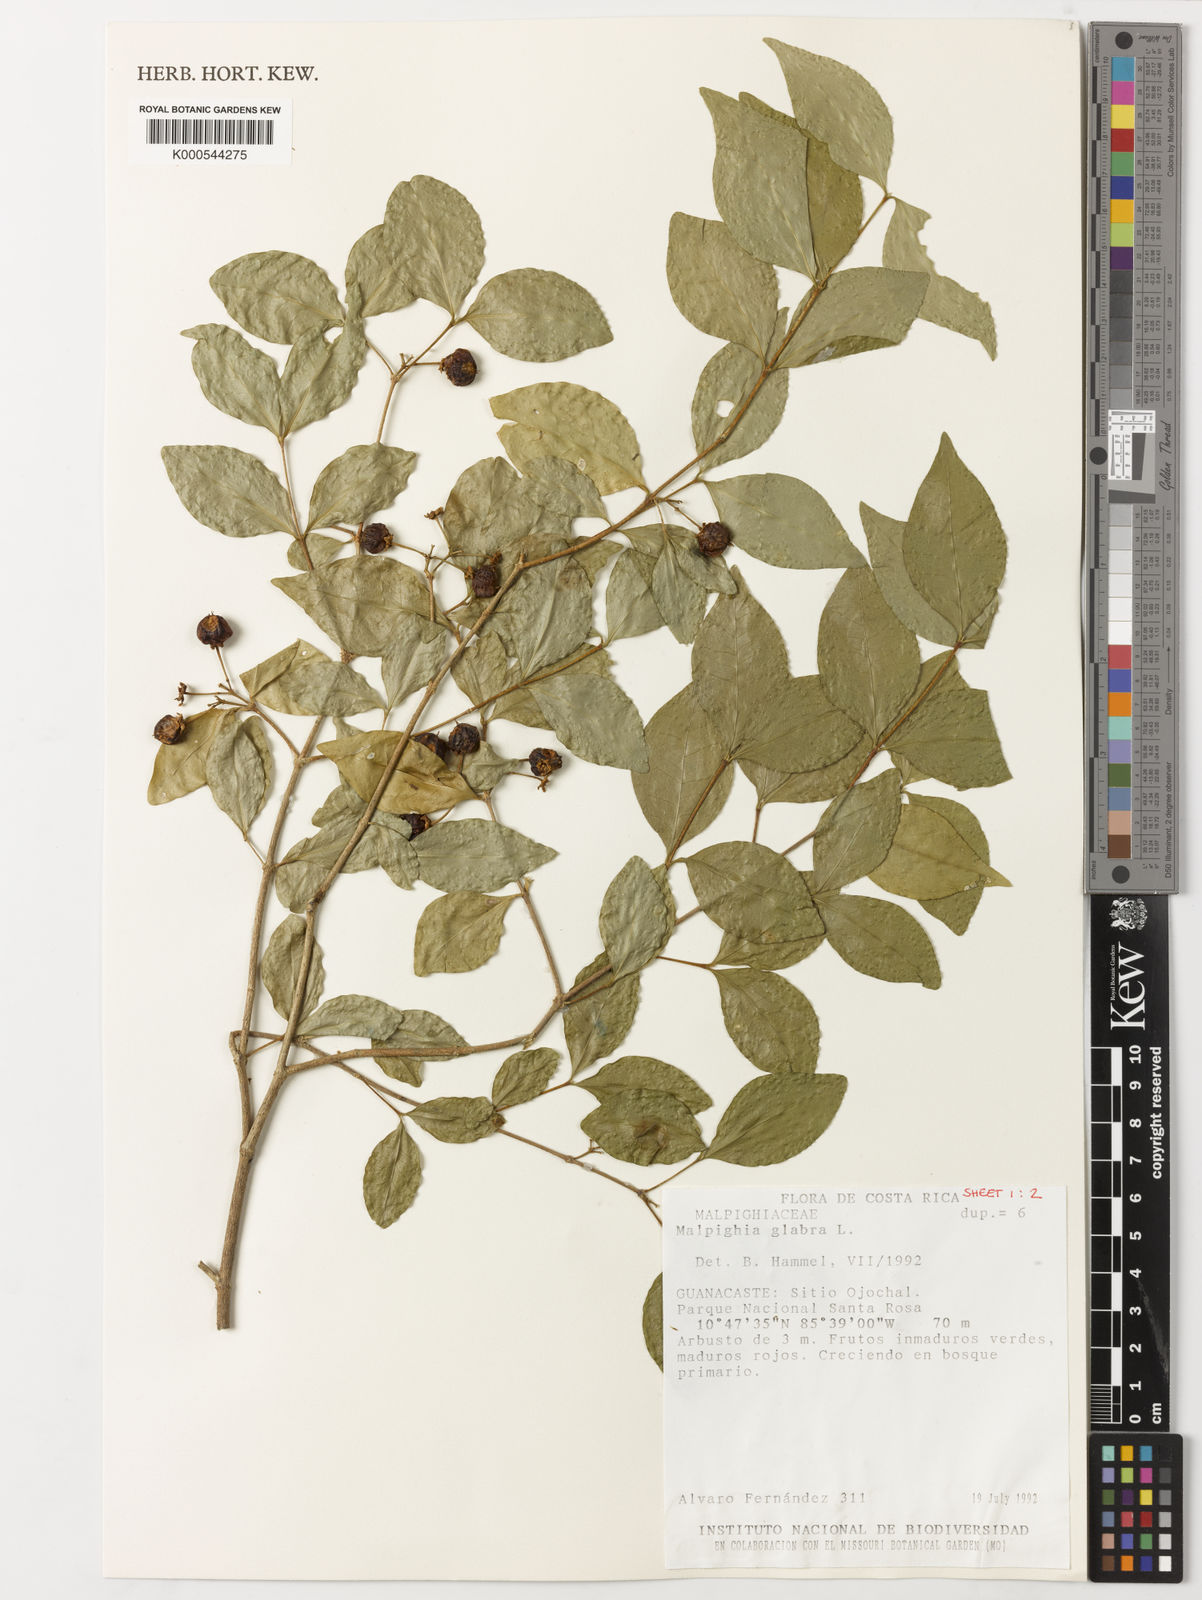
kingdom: Plantae
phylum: Tracheophyta
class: Magnoliopsida
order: Malpighiales
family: Malpighiaceae
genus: Malpighia
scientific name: Malpighia glabra
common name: Barbados cherry
